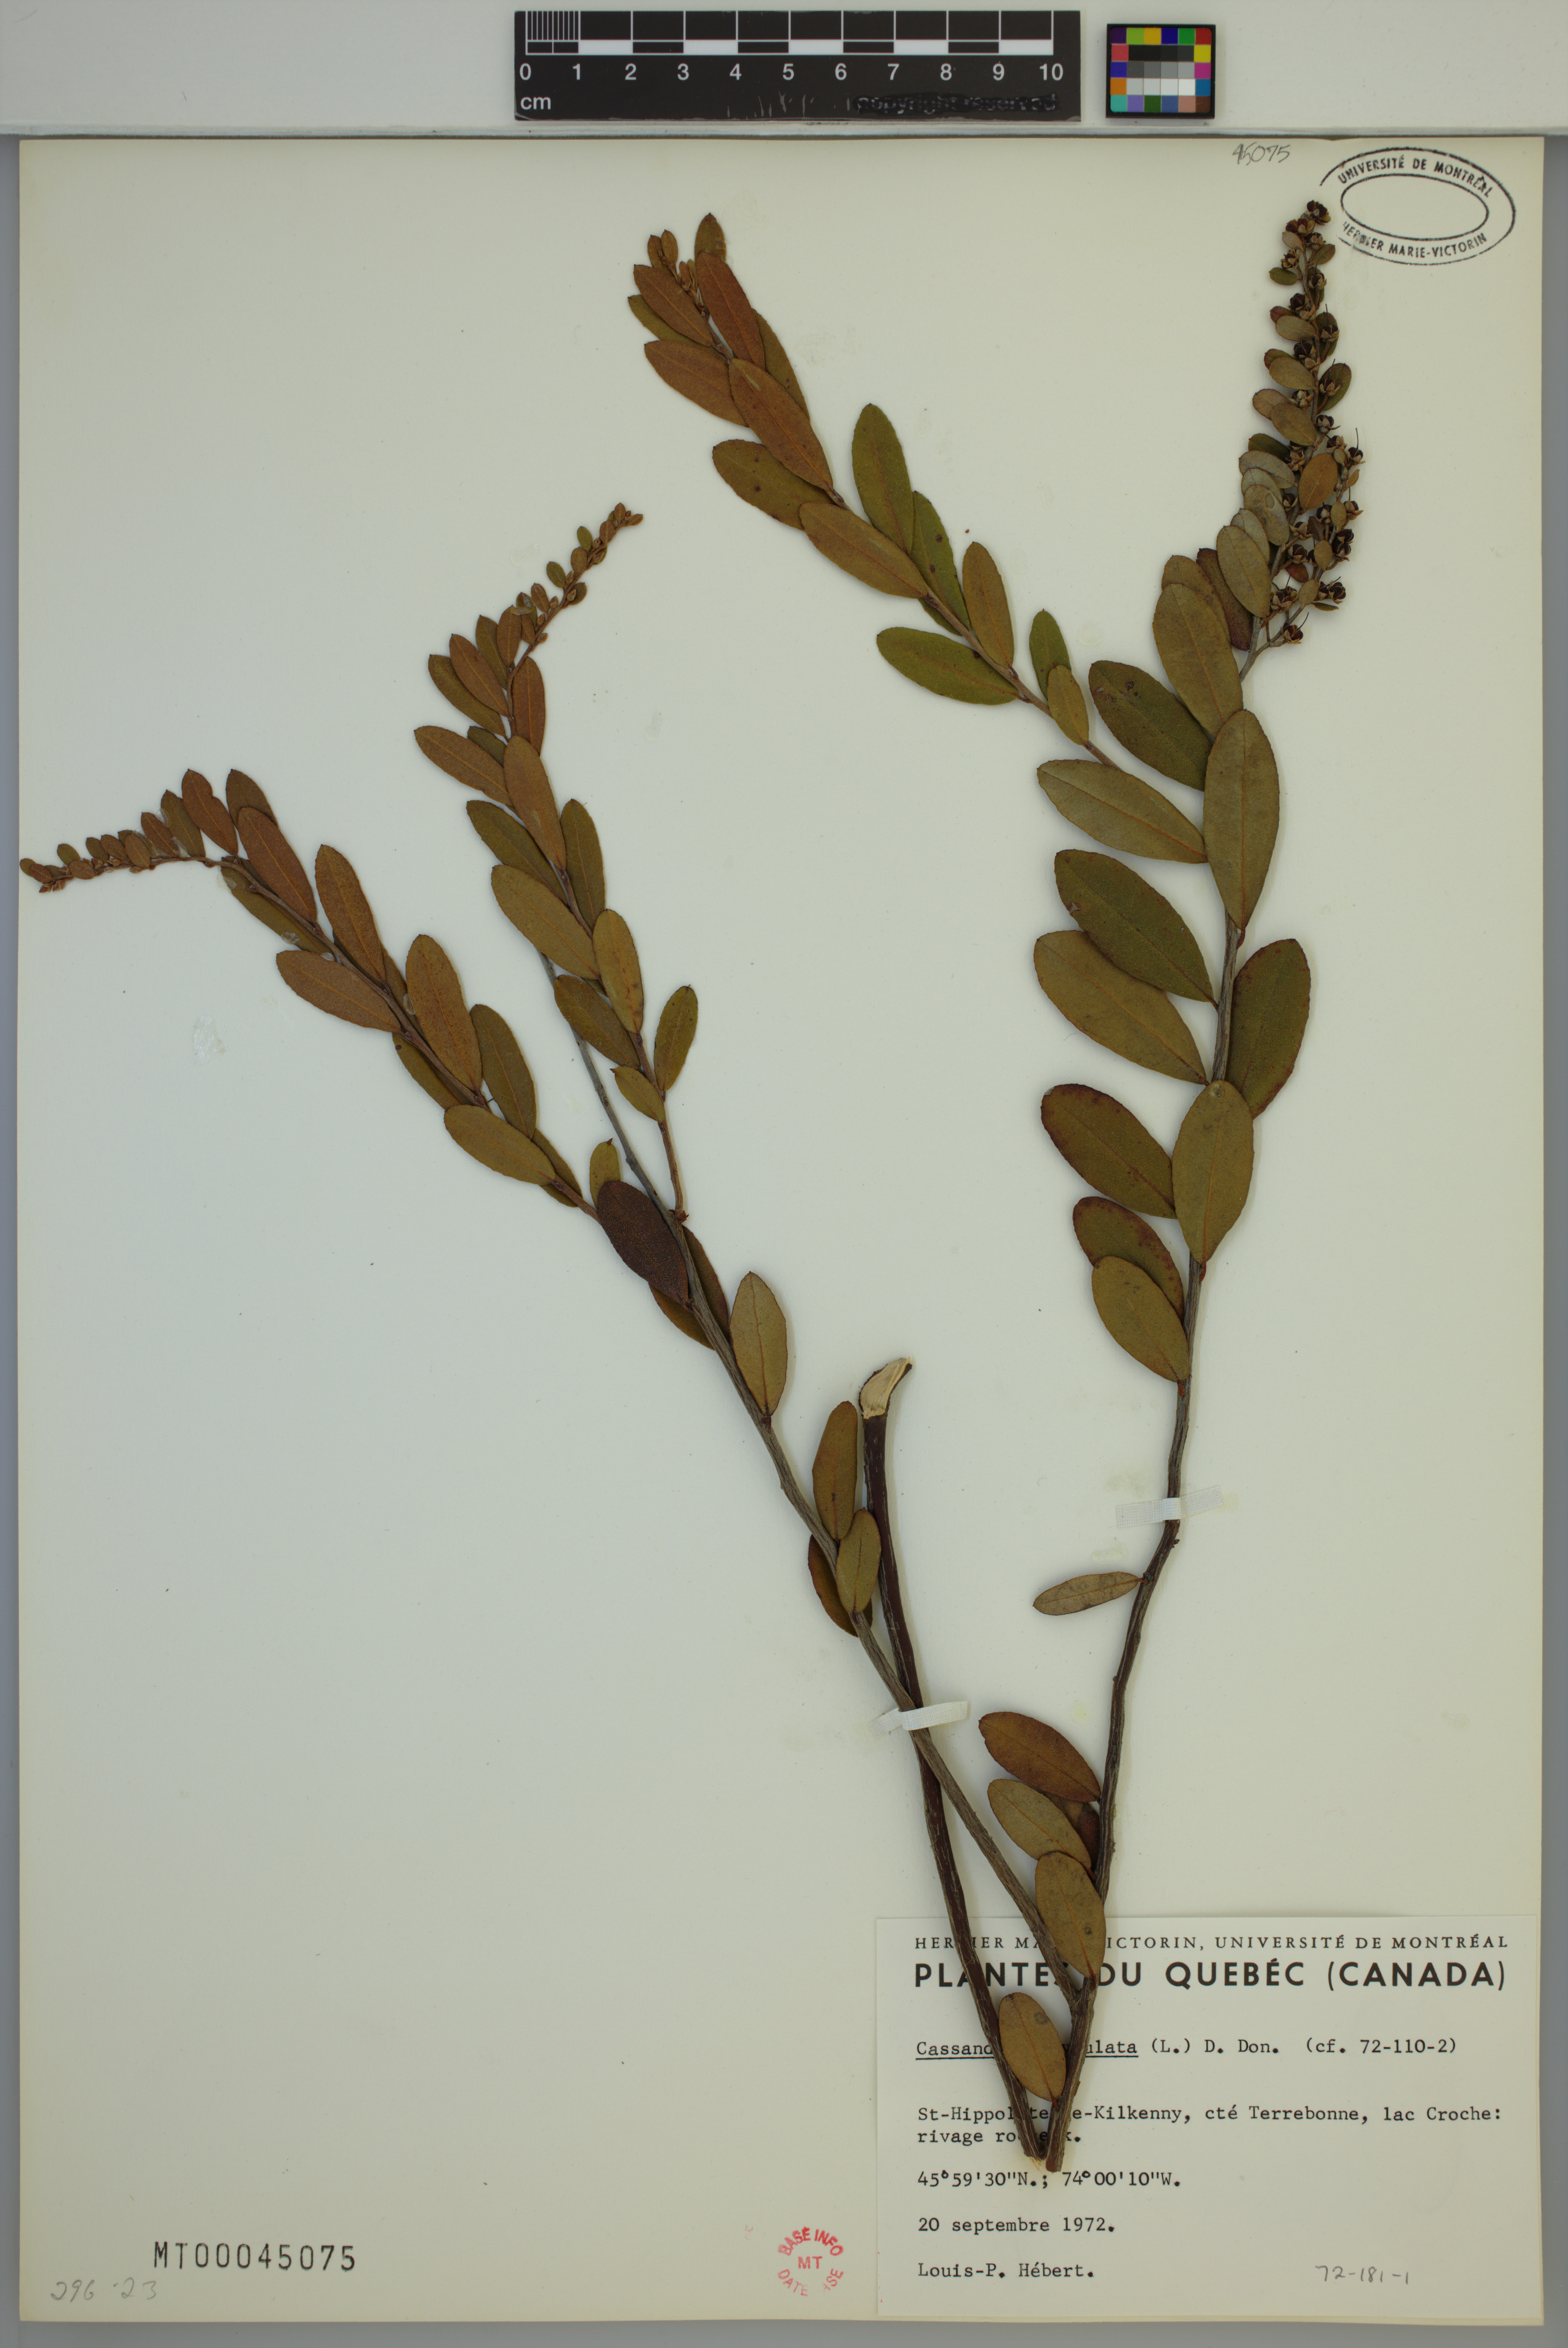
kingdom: Plantae
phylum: Tracheophyta
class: Magnoliopsida
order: Ericales
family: Ericaceae
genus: Chamaedaphne
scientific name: Chamaedaphne calyculata
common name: Leatherleaf
